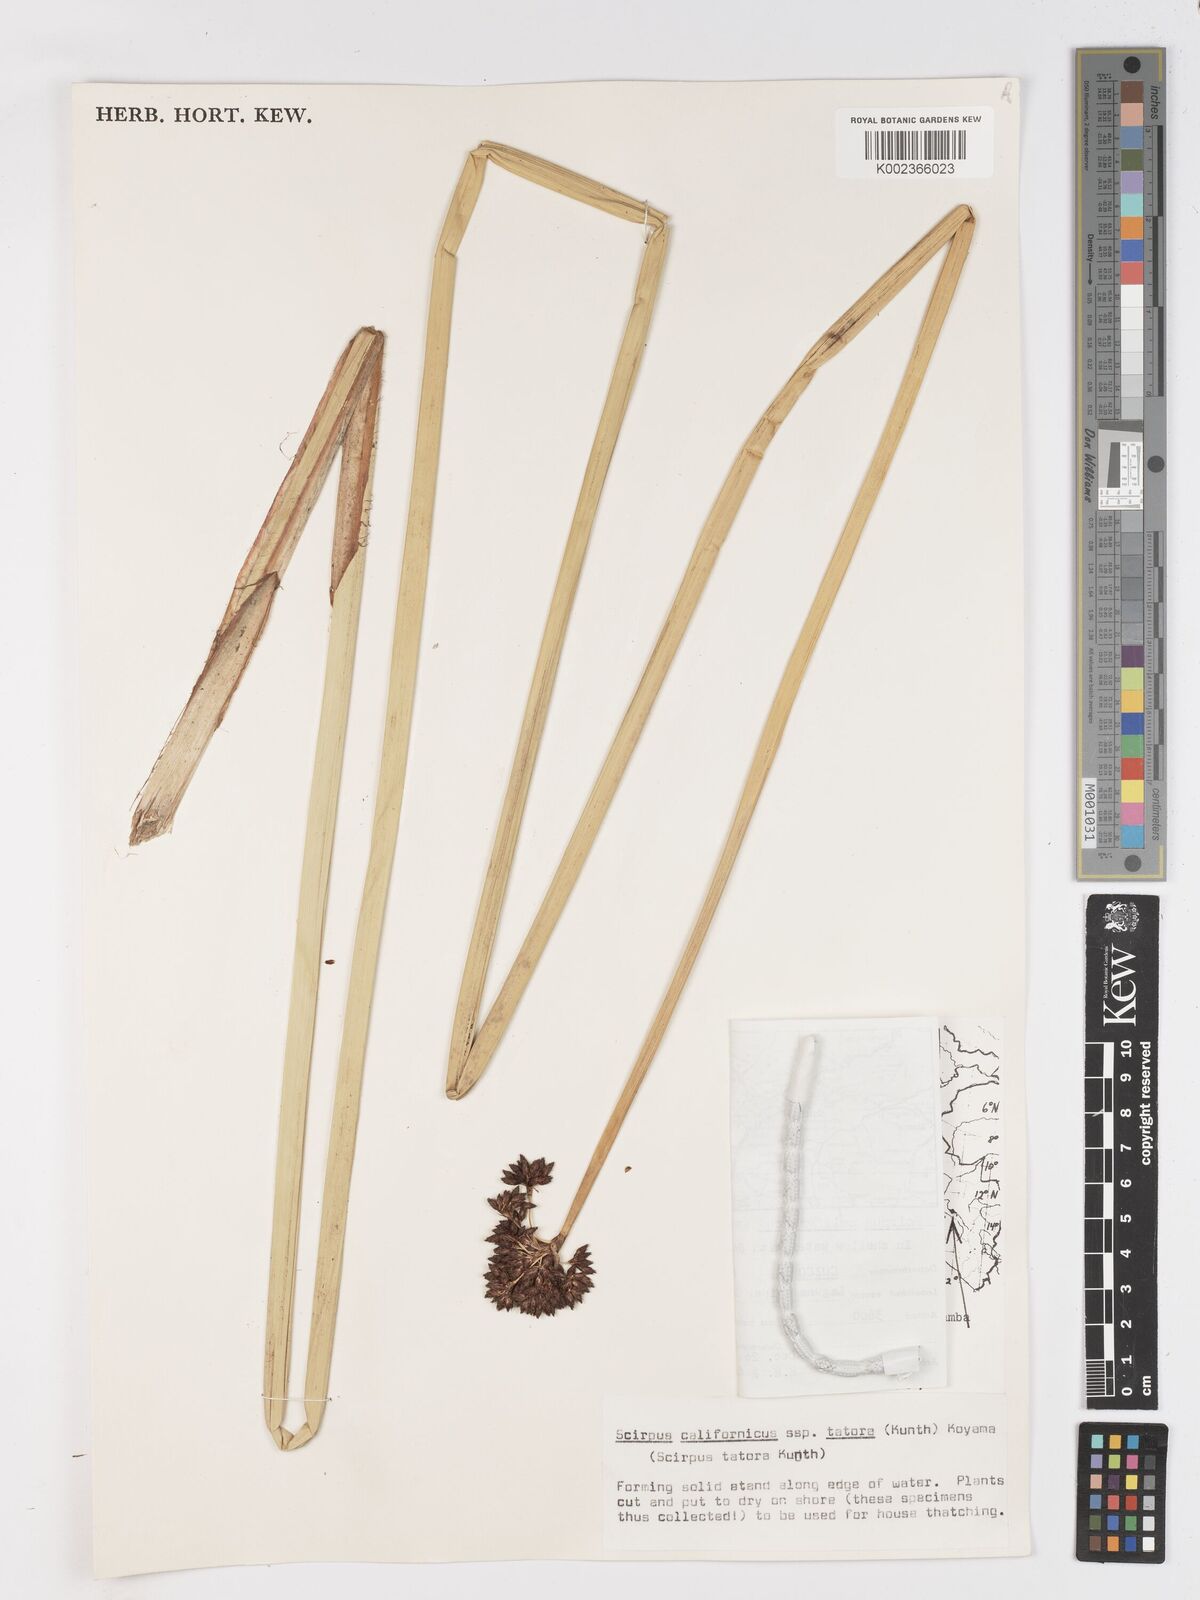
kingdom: Plantae
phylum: Tracheophyta
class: Liliopsida
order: Poales
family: Cyperaceae
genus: Schoenoplectus
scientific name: Schoenoplectus californicus
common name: California bulrush
